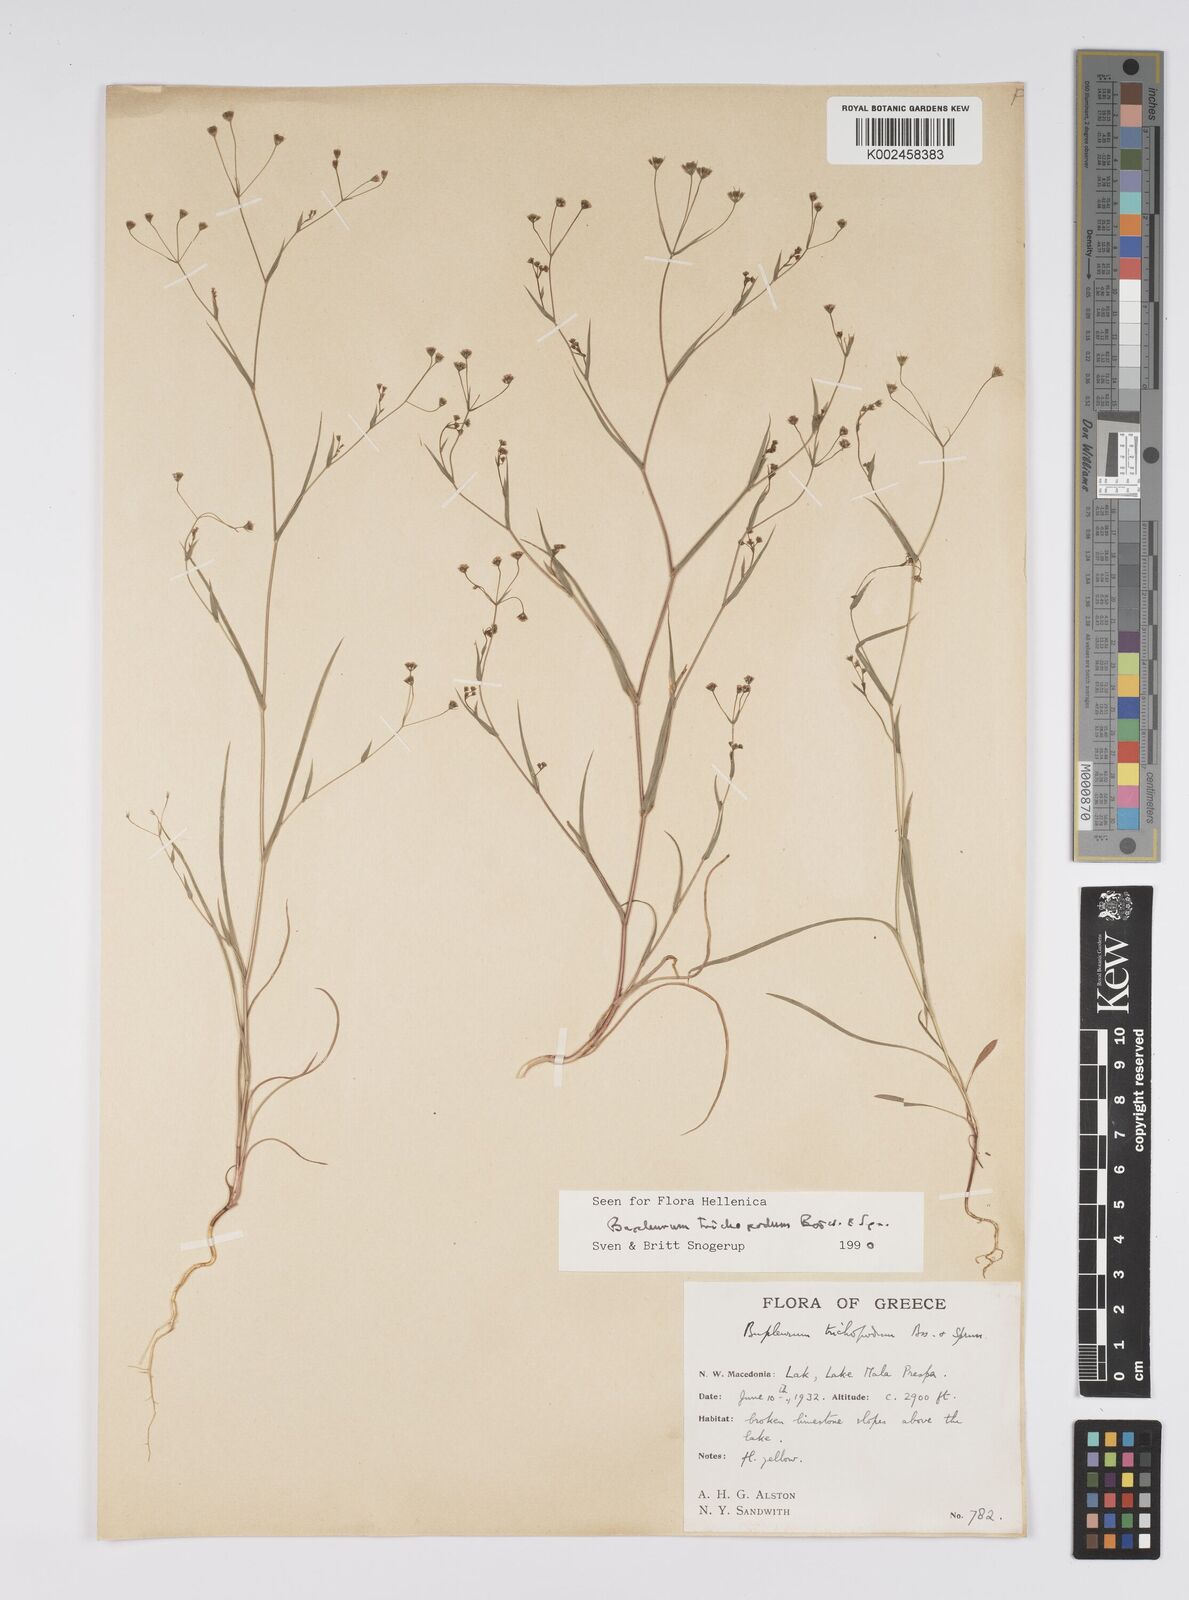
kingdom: Plantae
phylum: Tracheophyta
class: Magnoliopsida
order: Apiales
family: Apiaceae
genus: Bupleurum
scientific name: Bupleurum trichopodum
